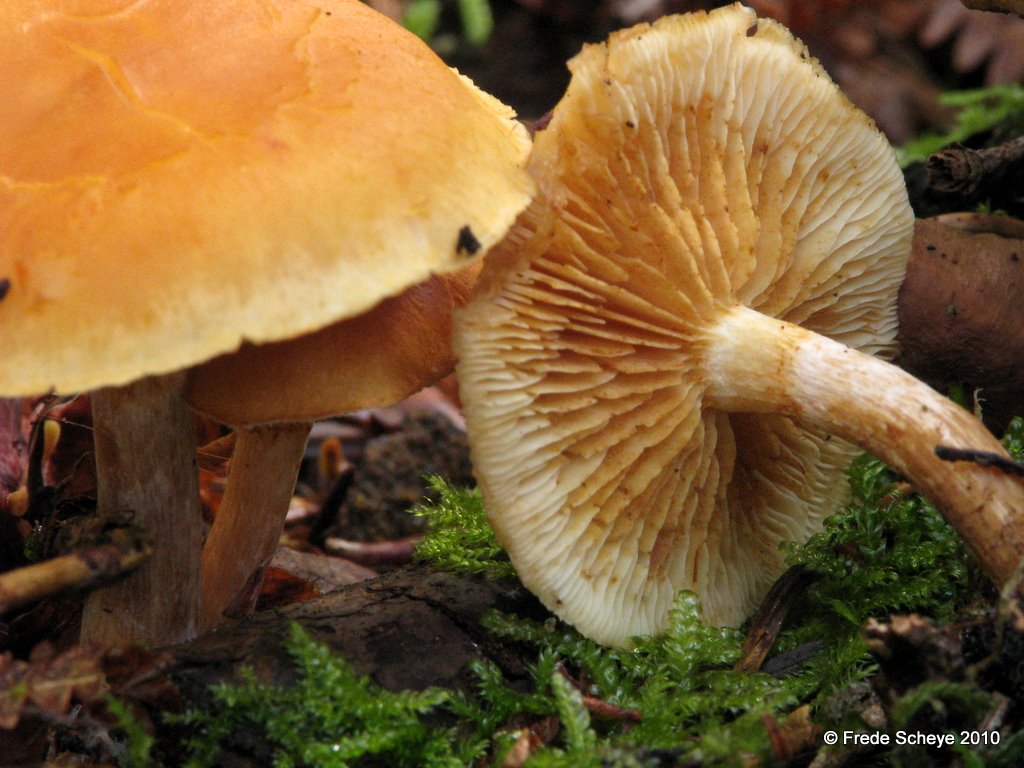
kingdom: Fungi
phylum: Basidiomycota
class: Agaricomycetes
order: Agaricales
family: Hymenogastraceae
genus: Gymnopilus
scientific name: Gymnopilus penetrans
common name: plettet flammehat
